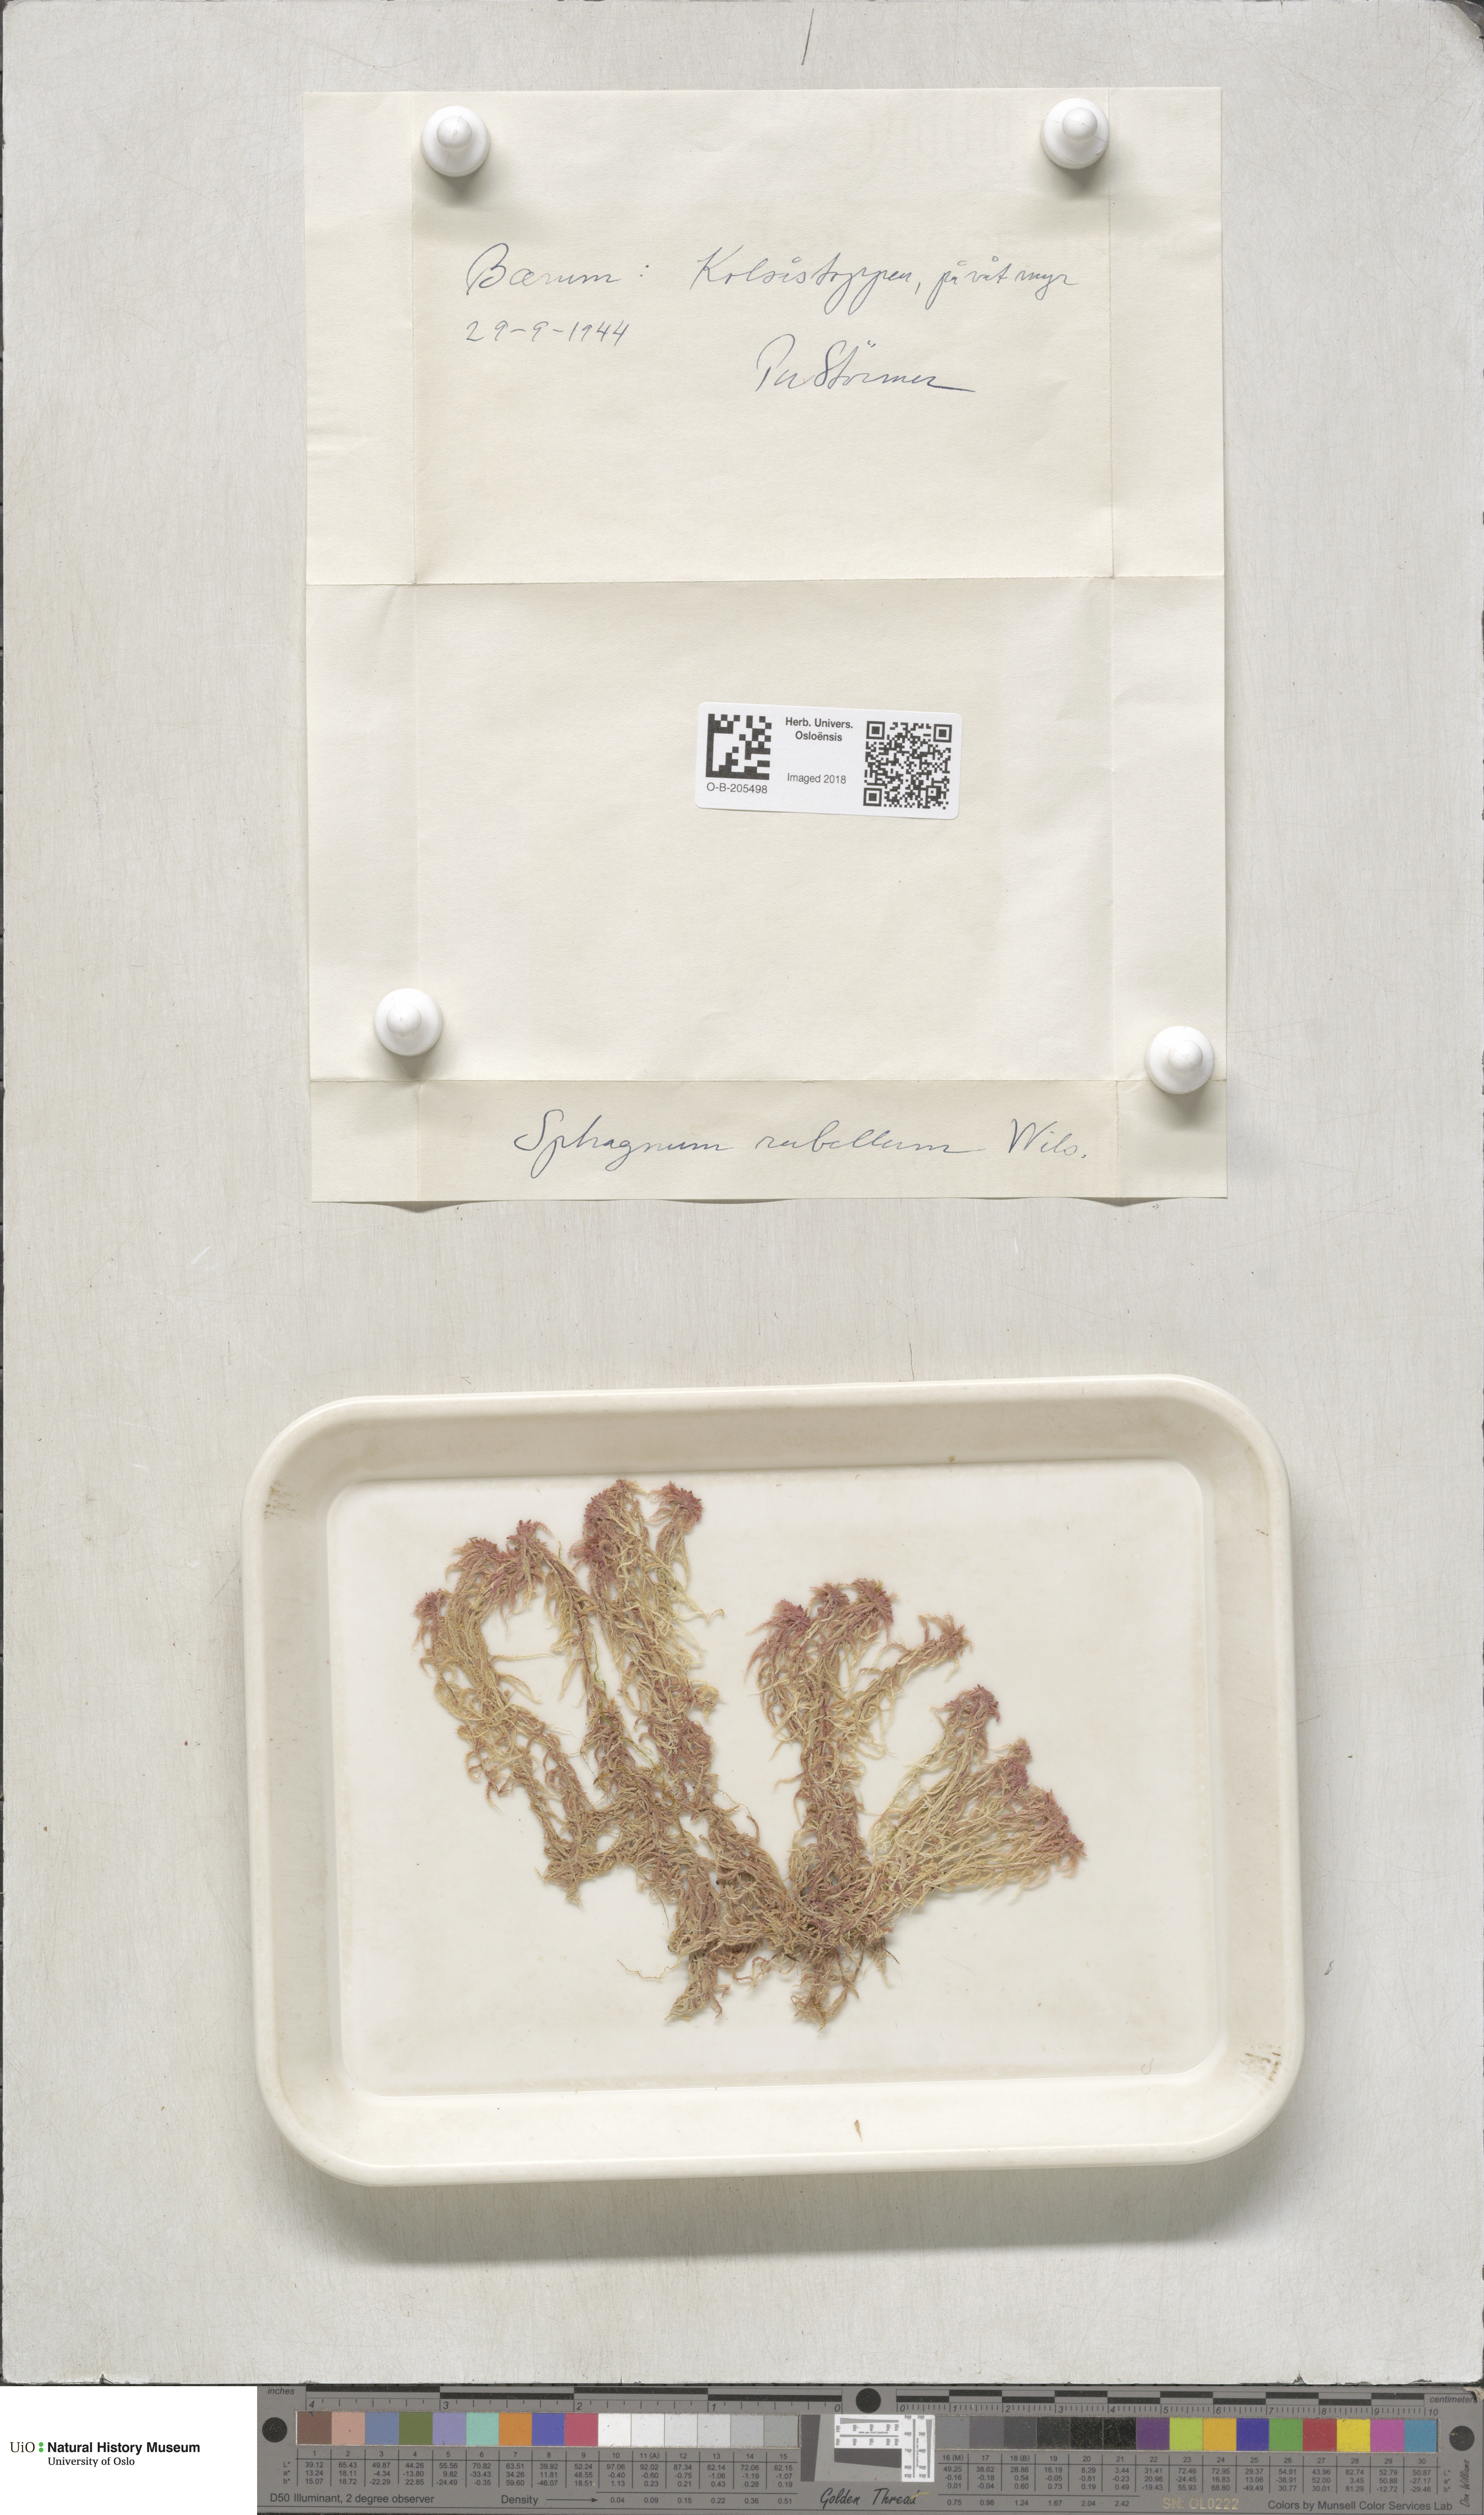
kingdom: Plantae
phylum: Bryophyta
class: Sphagnopsida
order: Sphagnales
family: Sphagnaceae
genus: Sphagnum
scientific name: Sphagnum rubellum
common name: Red peat moss
